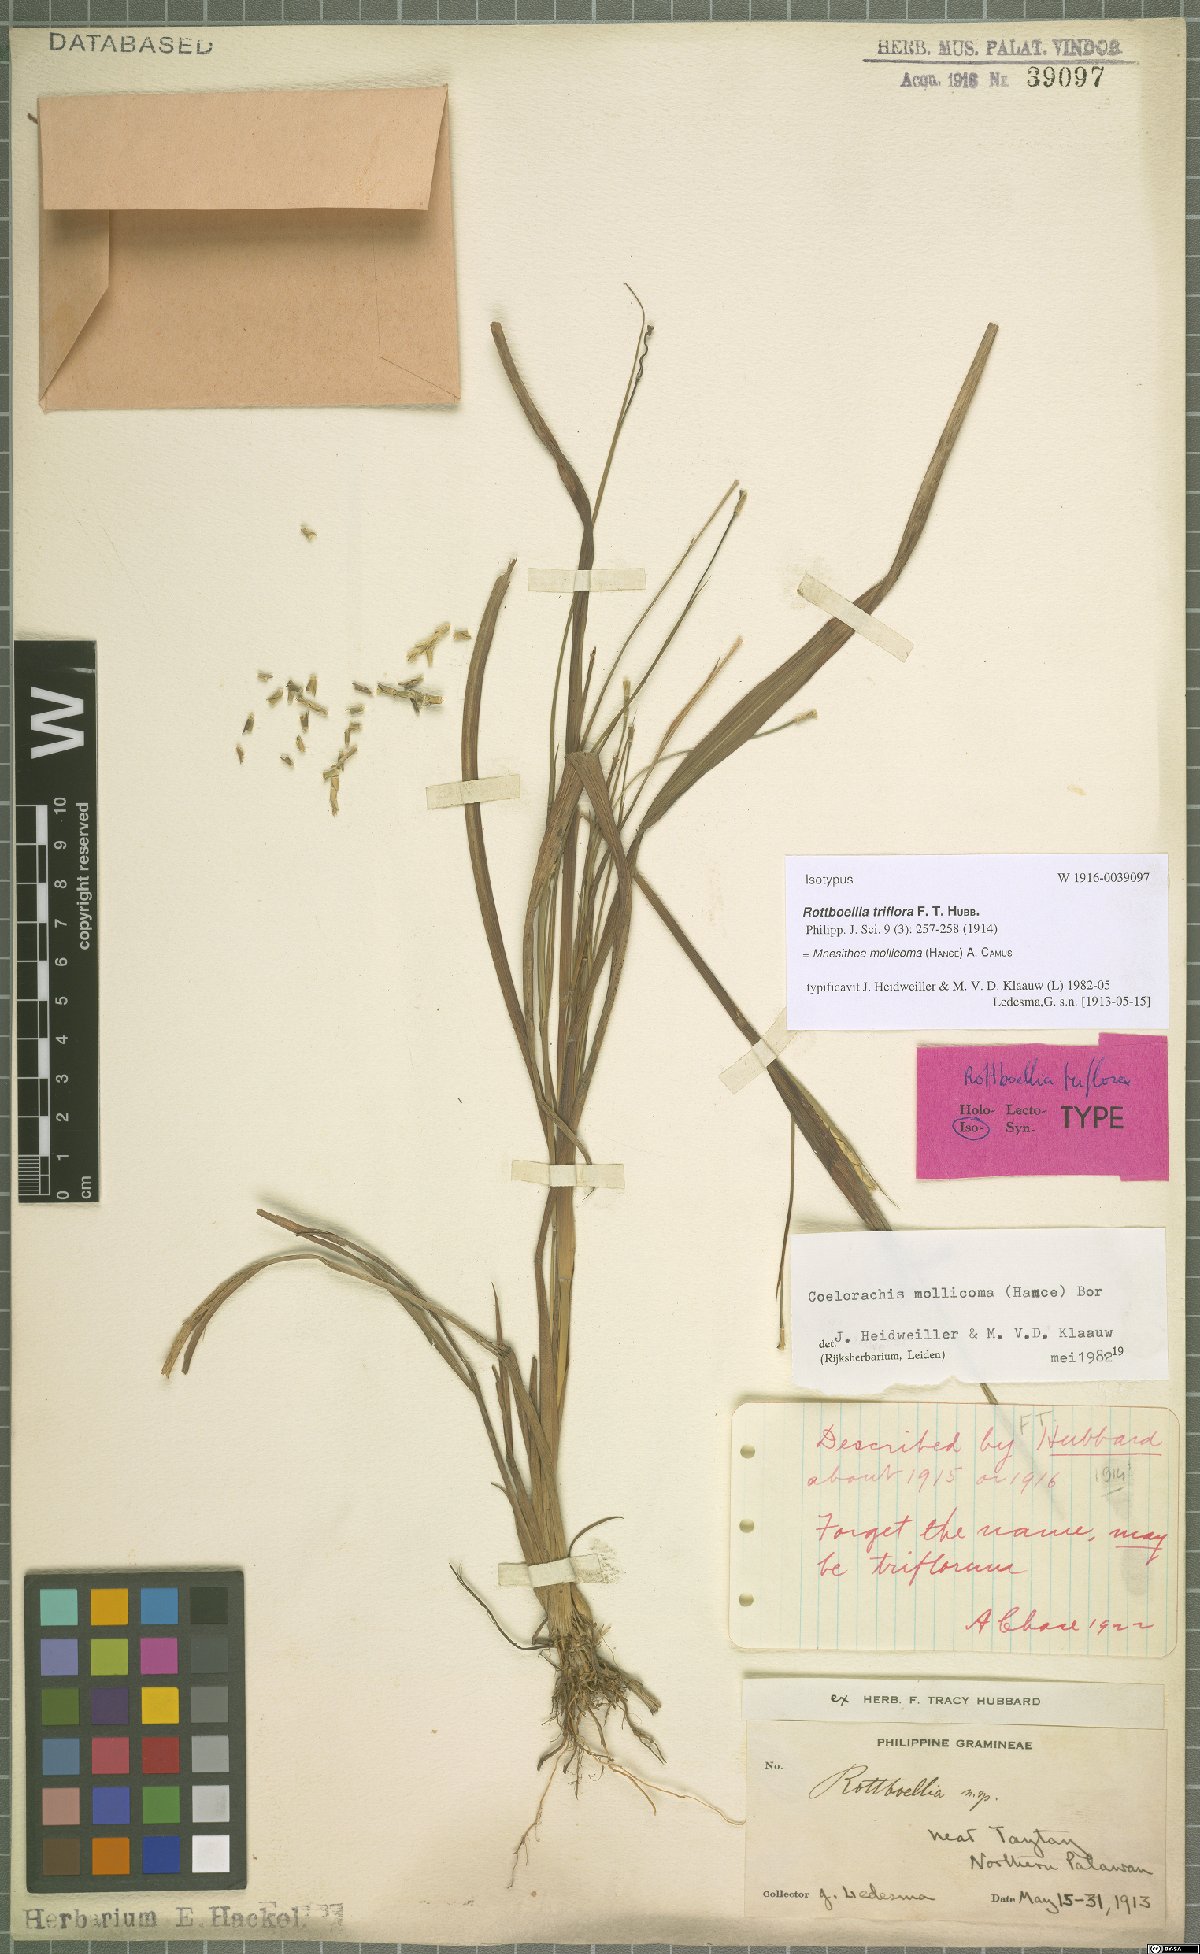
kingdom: Plantae
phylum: Tracheophyta
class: Liliopsida
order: Poales
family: Poaceae
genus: Mnesithea
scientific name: Mnesithea mollicoma
